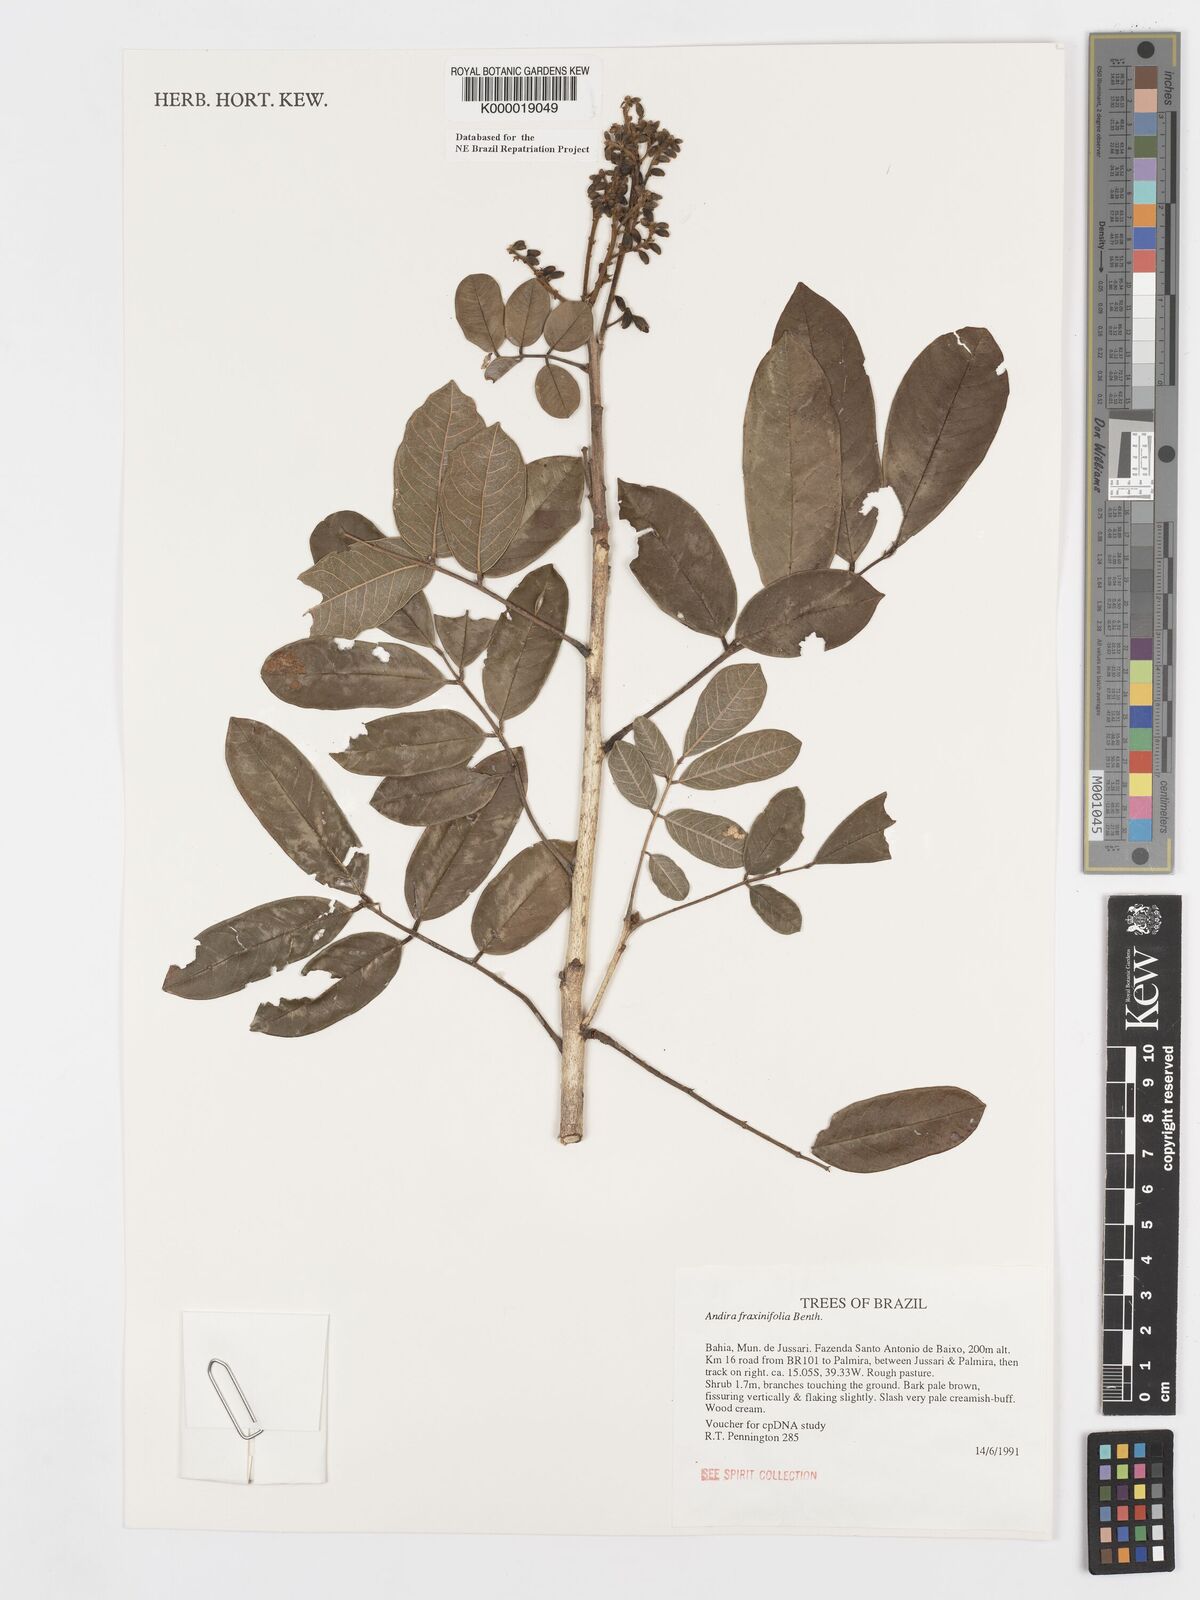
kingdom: Plantae
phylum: Tracheophyta
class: Magnoliopsida
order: Fabales
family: Fabaceae
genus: Andira
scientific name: Andira fraxinifolia
